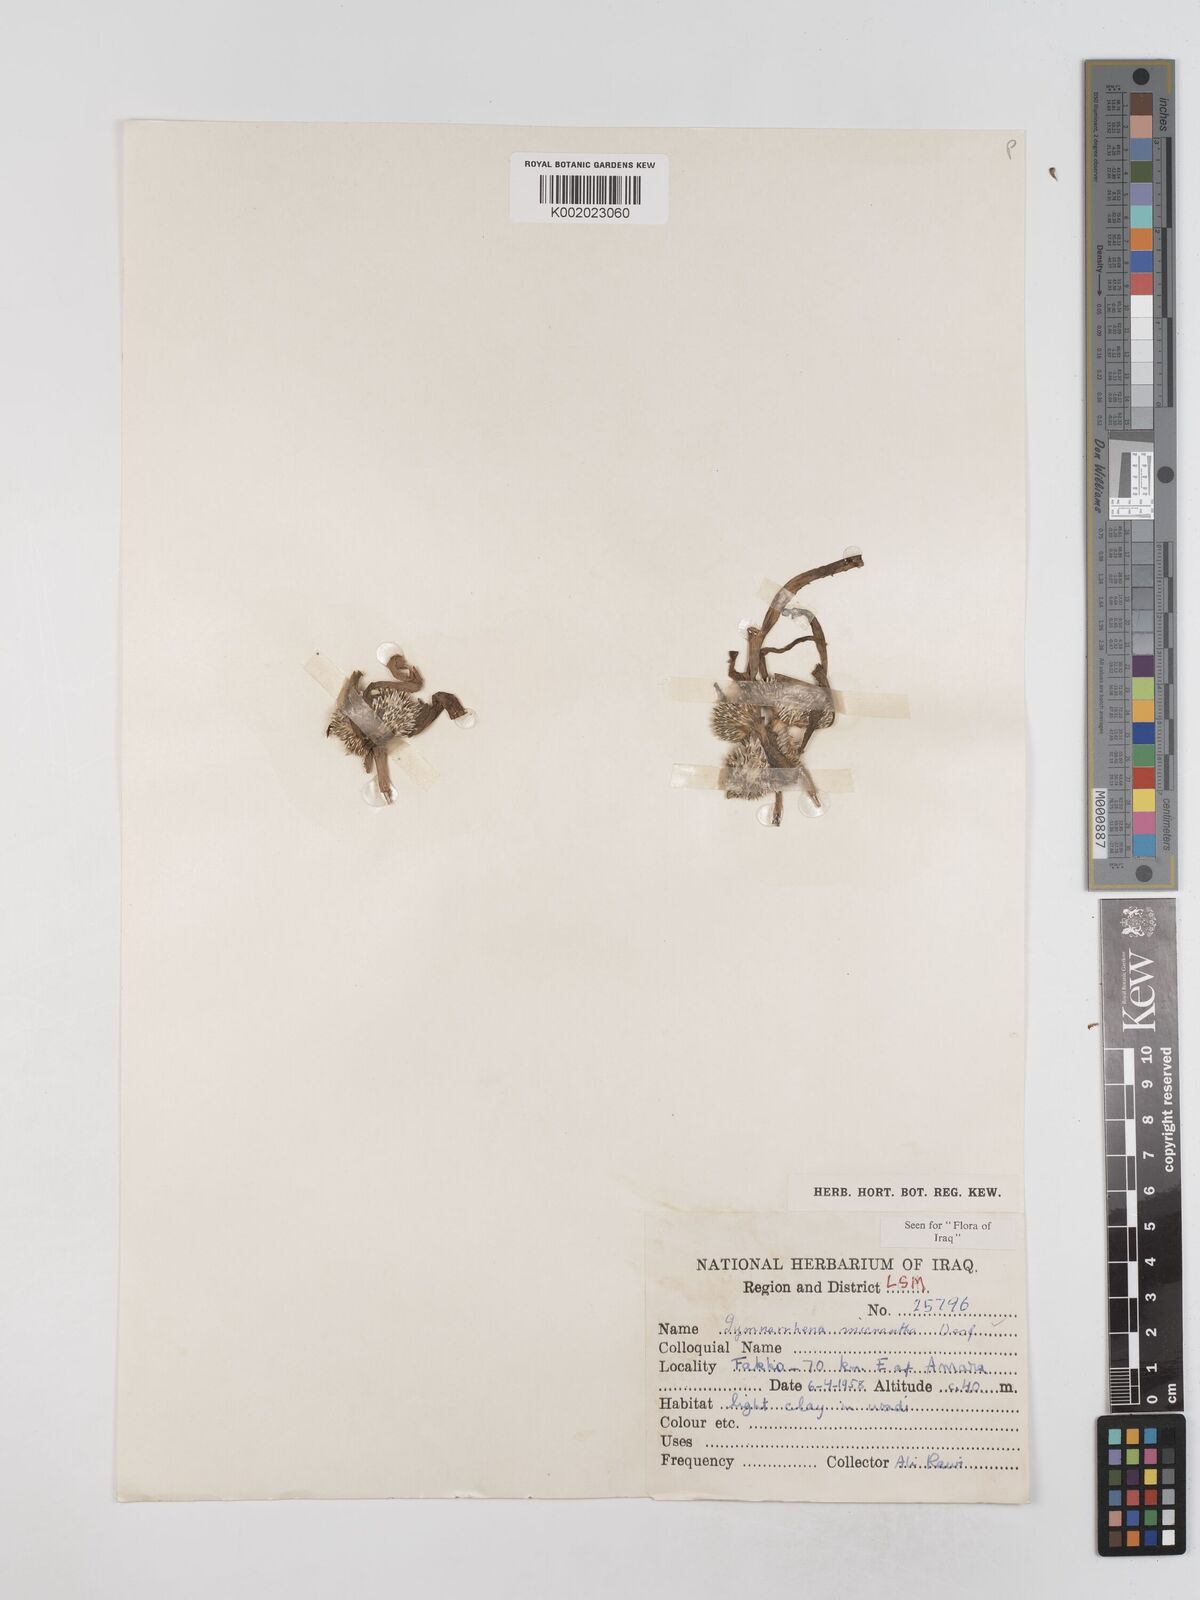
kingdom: Plantae
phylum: Tracheophyta
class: Magnoliopsida
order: Asterales
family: Asteraceae
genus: Gymnarrhena
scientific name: Gymnarrhena micrantha
